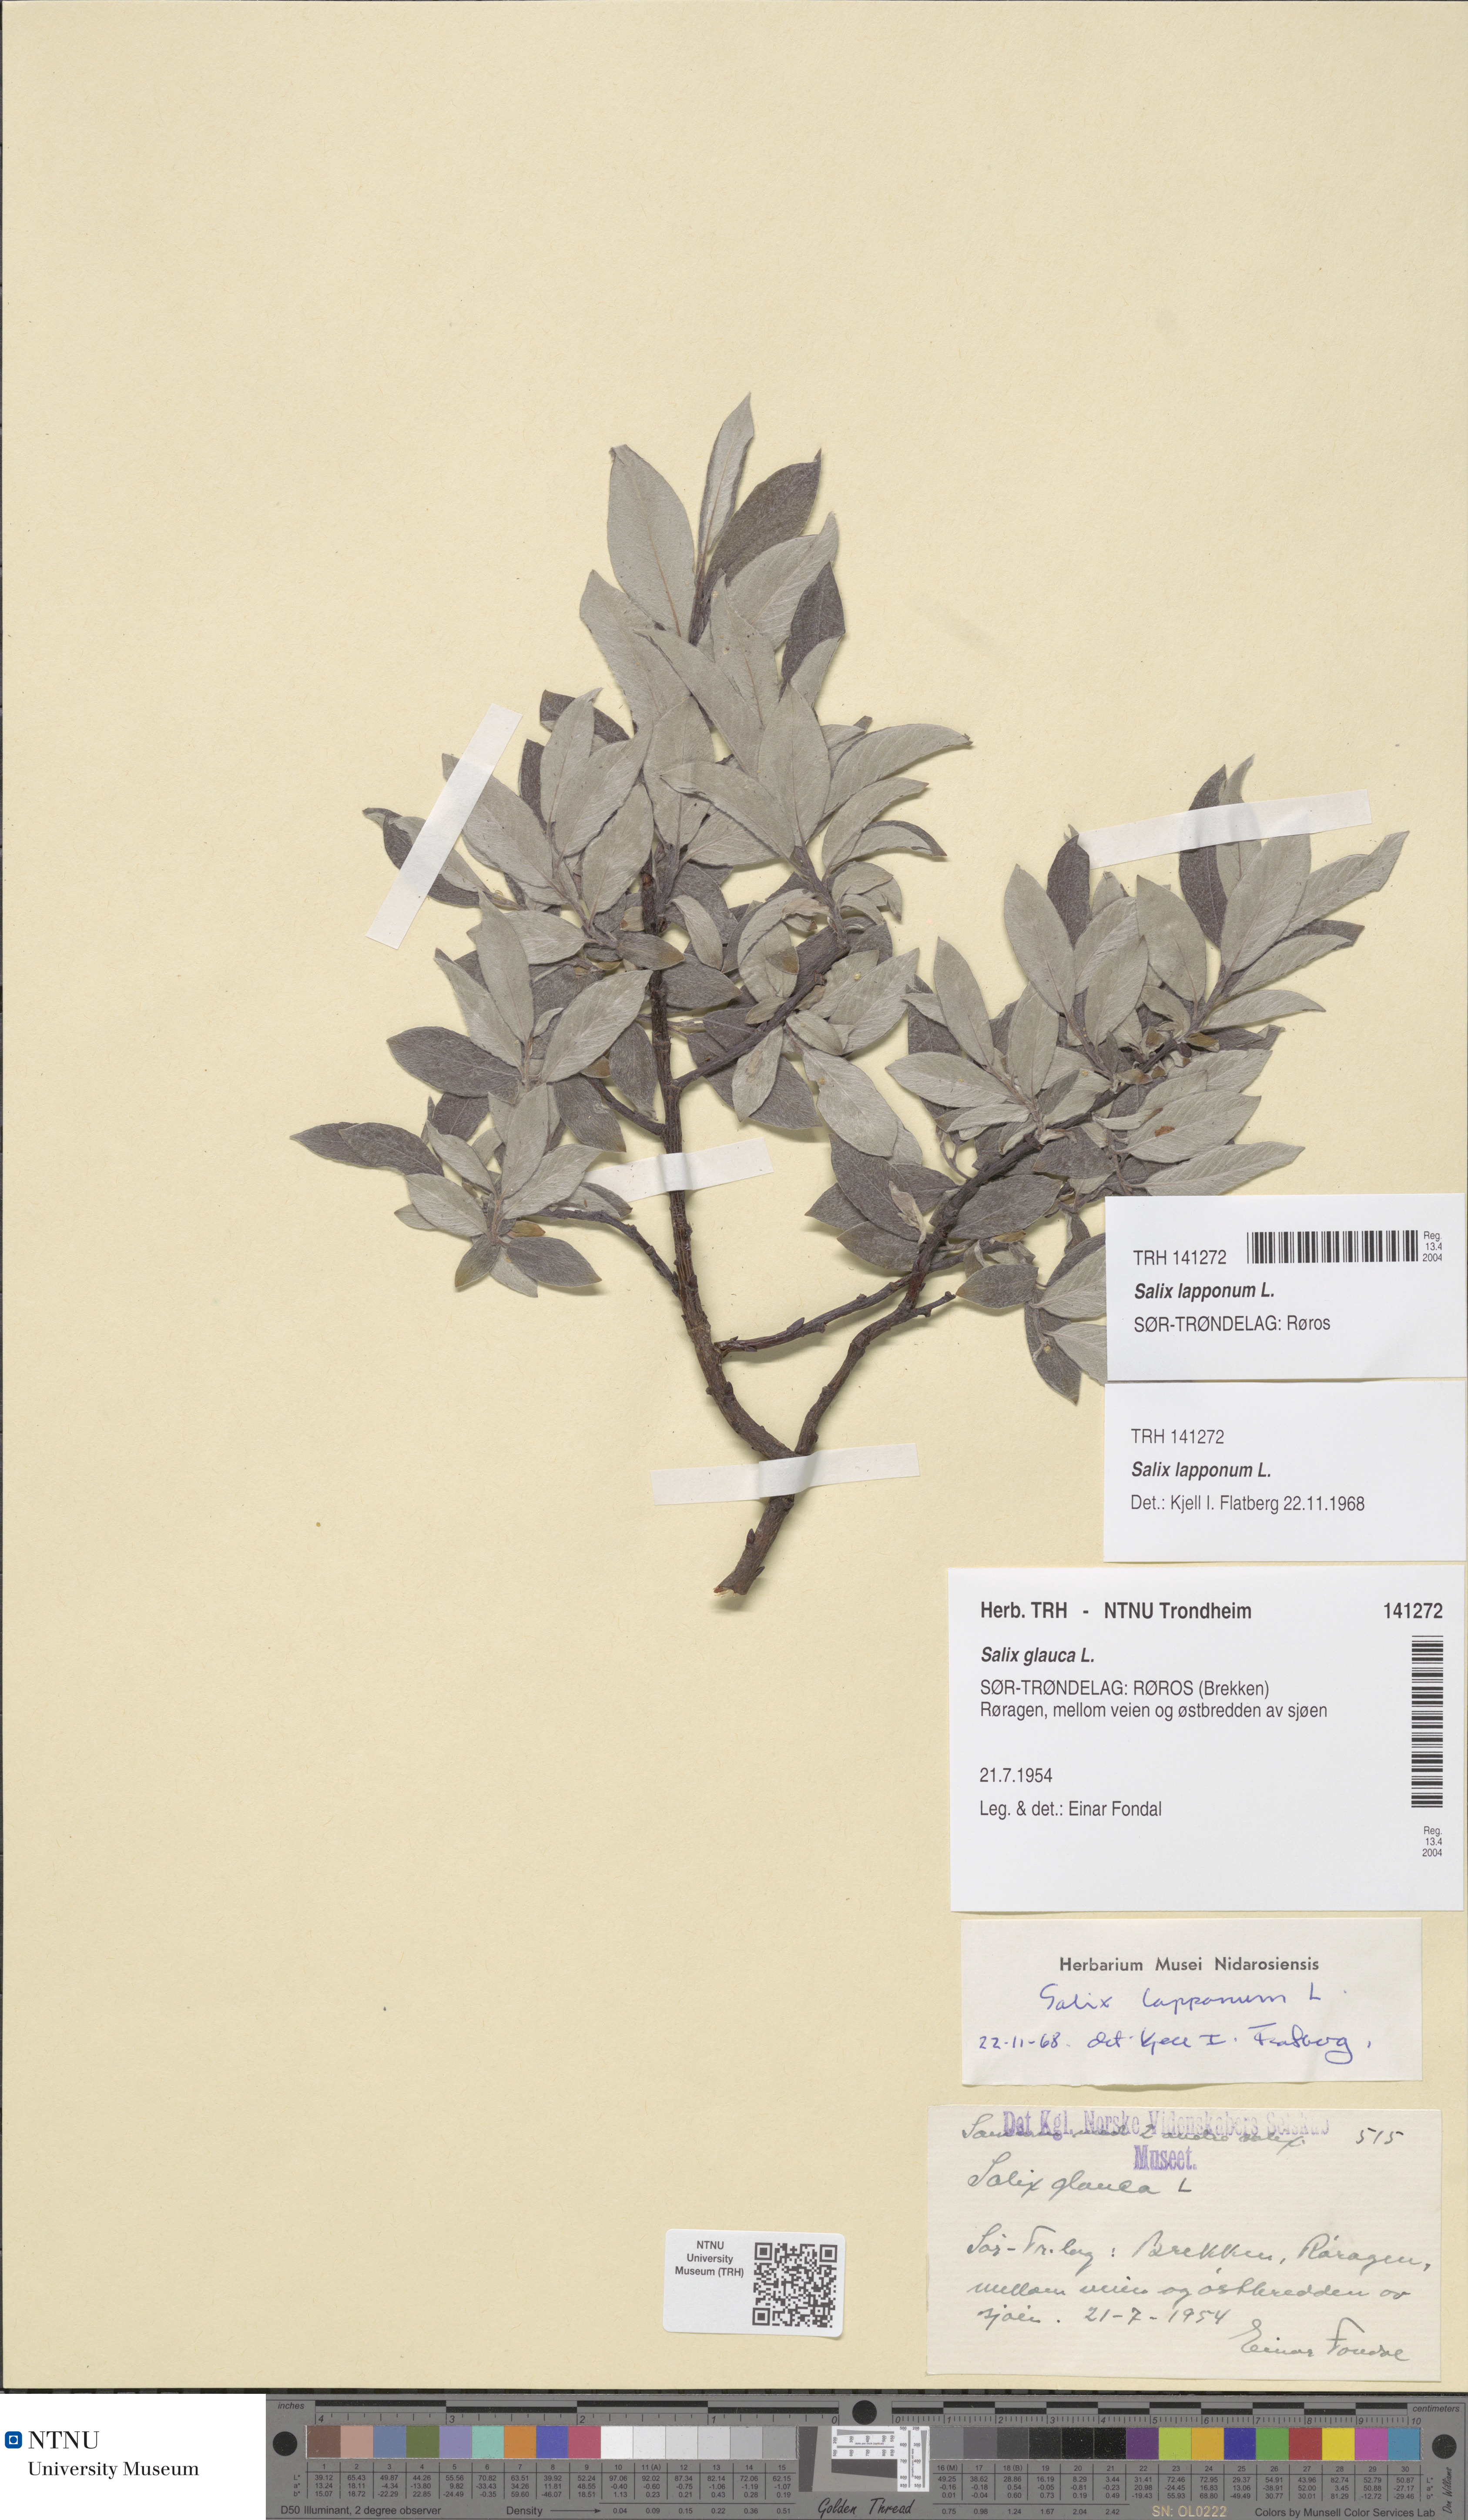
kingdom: Plantae
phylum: Tracheophyta
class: Magnoliopsida
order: Malpighiales
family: Salicaceae
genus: Salix
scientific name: Salix lapponum
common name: Downy willow
